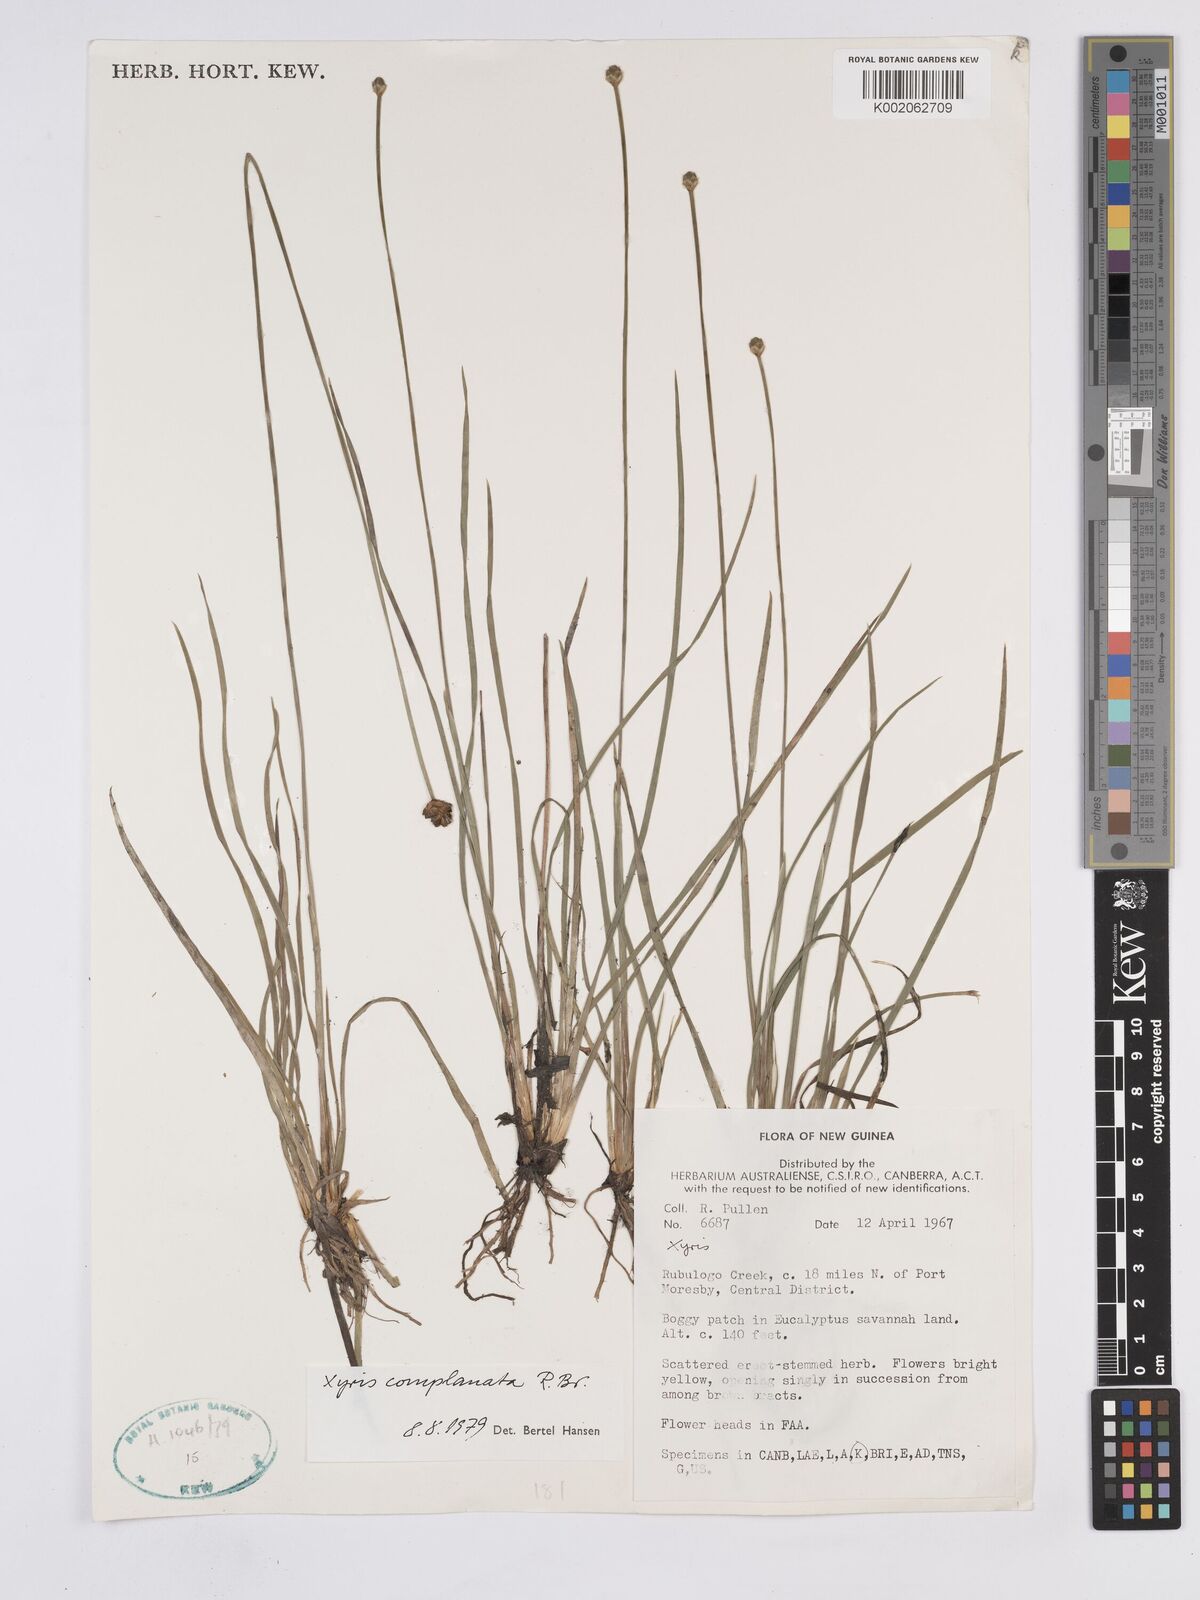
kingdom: Plantae
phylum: Tracheophyta
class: Liliopsida
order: Poales
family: Xyridaceae
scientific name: Xyridaceae
